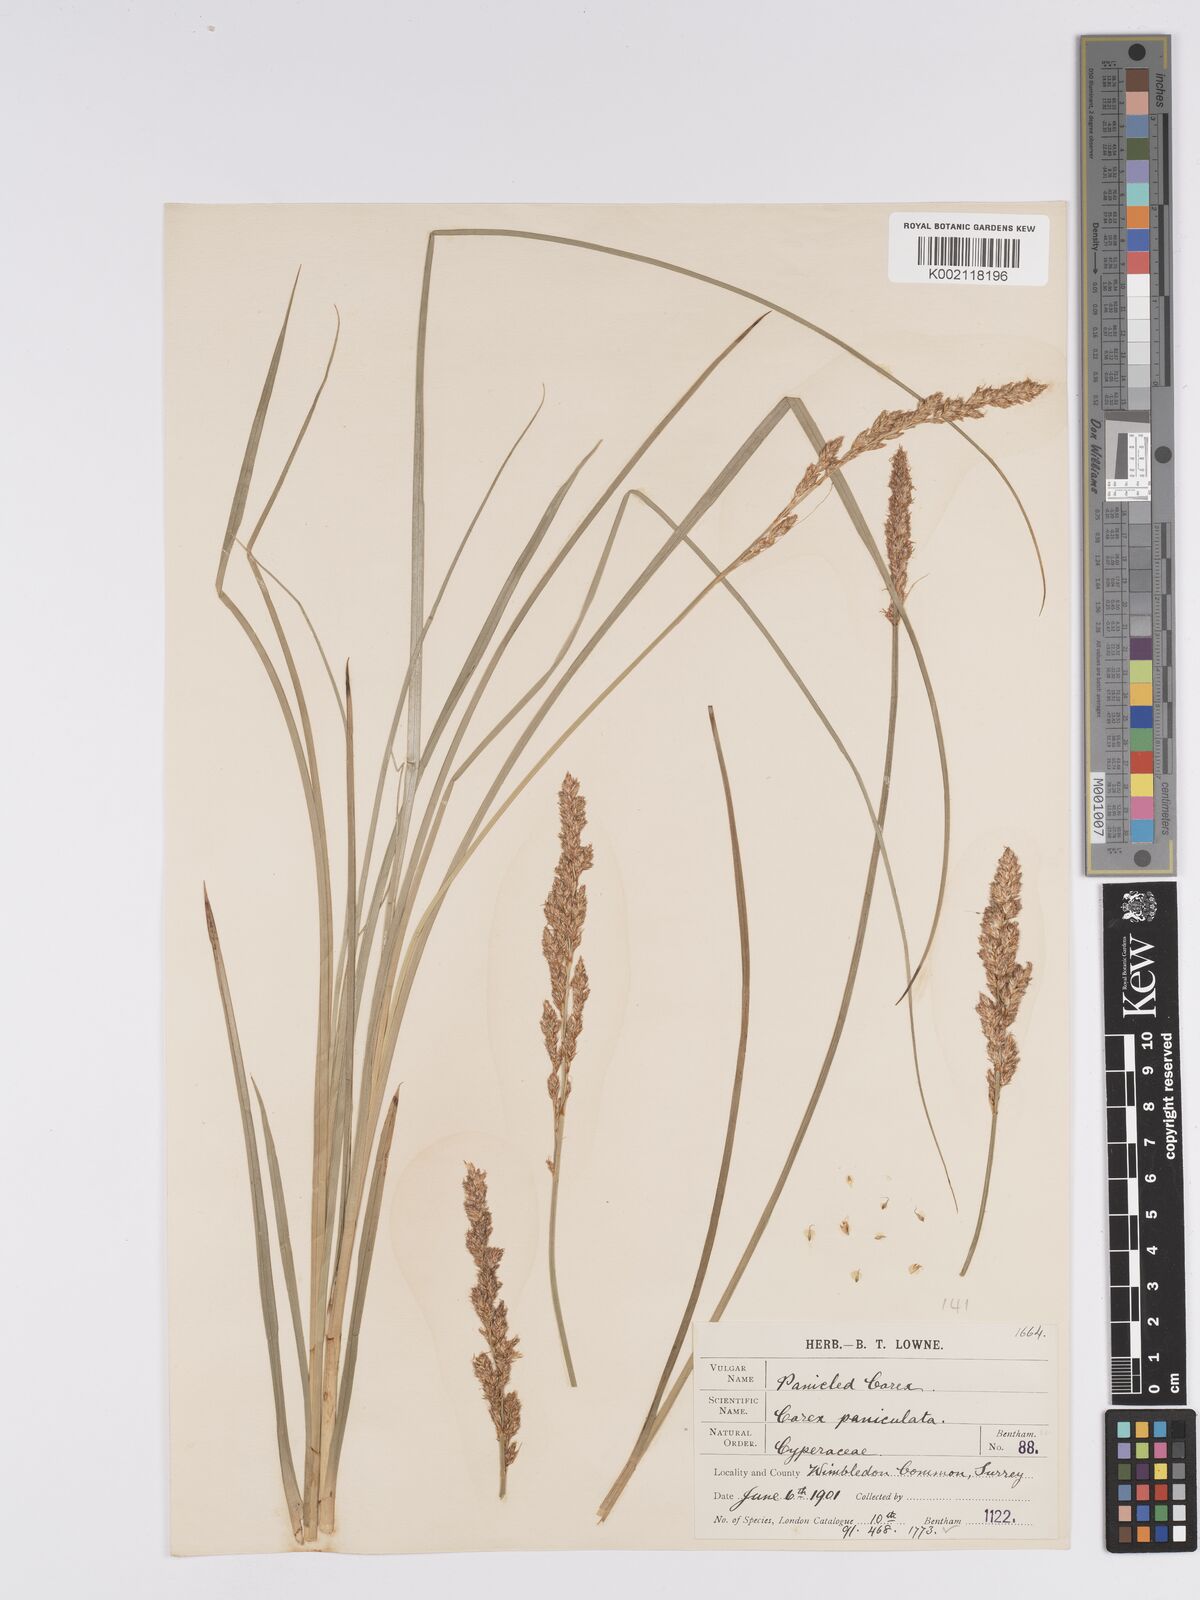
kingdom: Plantae
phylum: Tracheophyta
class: Liliopsida
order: Poales
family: Cyperaceae
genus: Carex
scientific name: Carex paniculata
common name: Greater tussock-sedge
